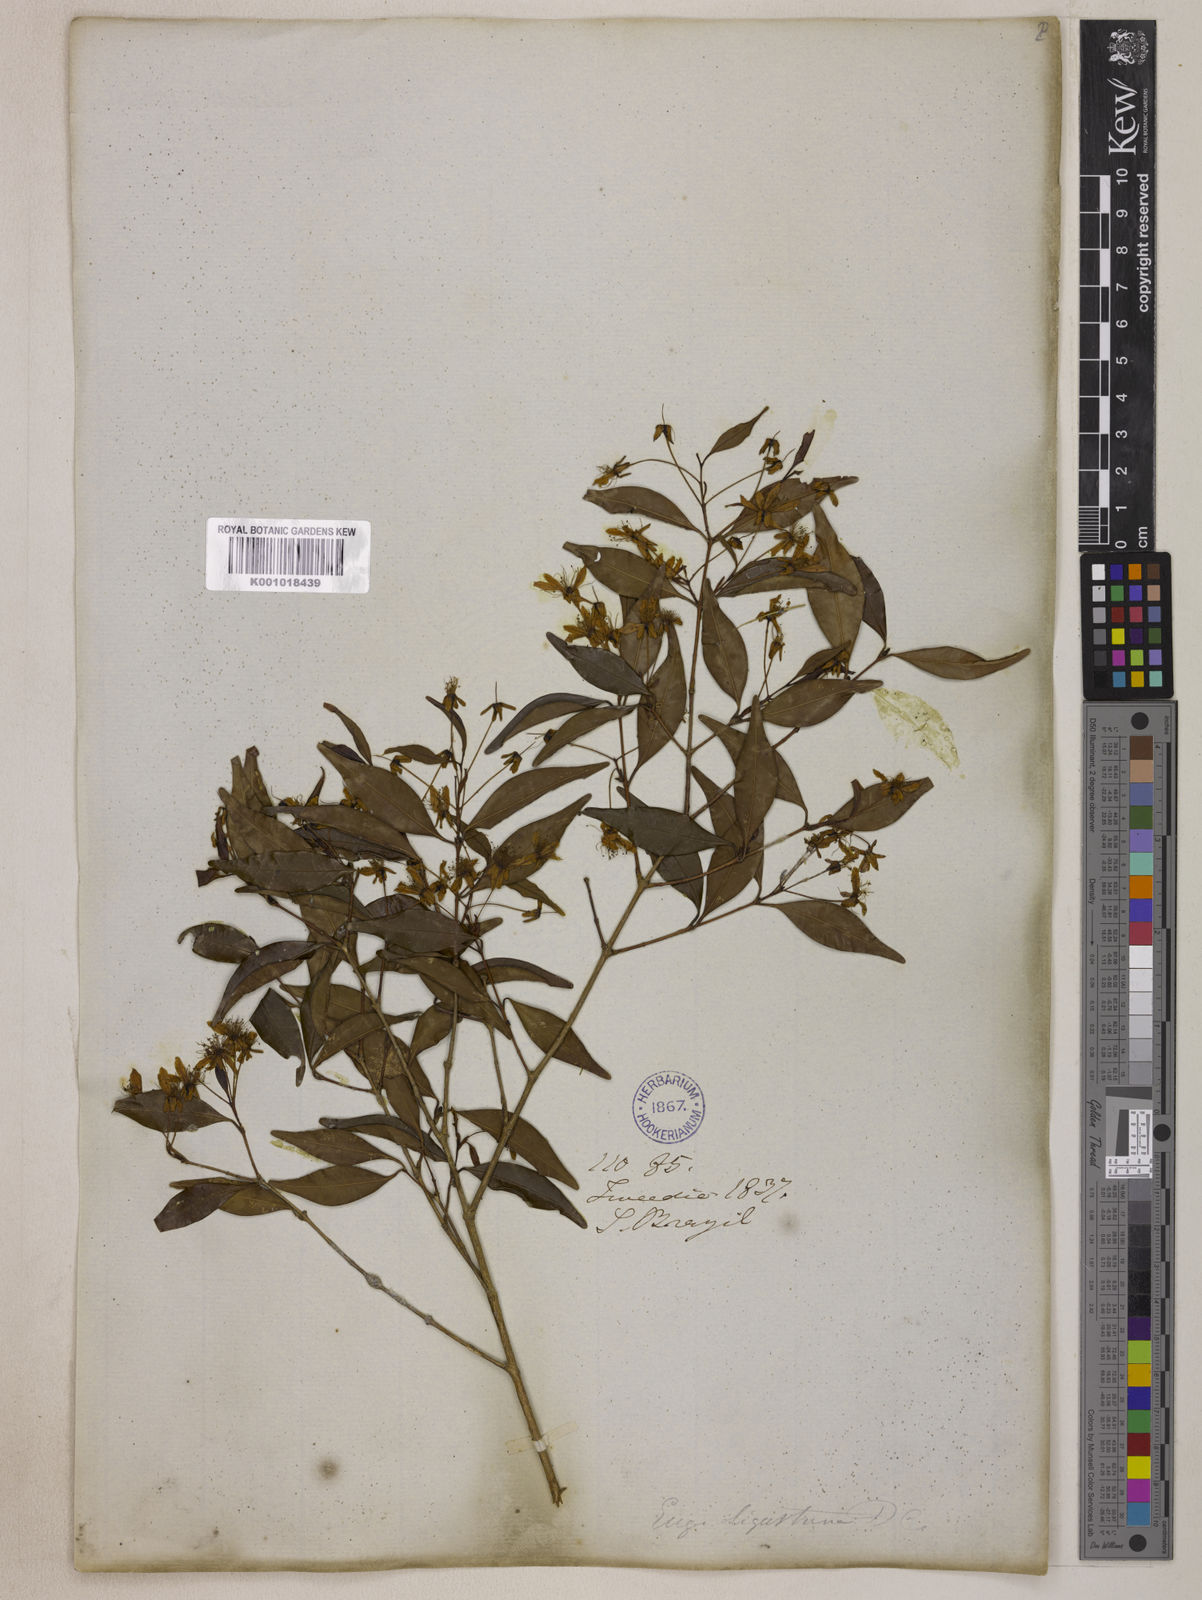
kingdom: Plantae
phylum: Tracheophyta
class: Magnoliopsida
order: Myrtales
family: Myrtaceae
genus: Eugenia
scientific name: Eugenia sulcata
